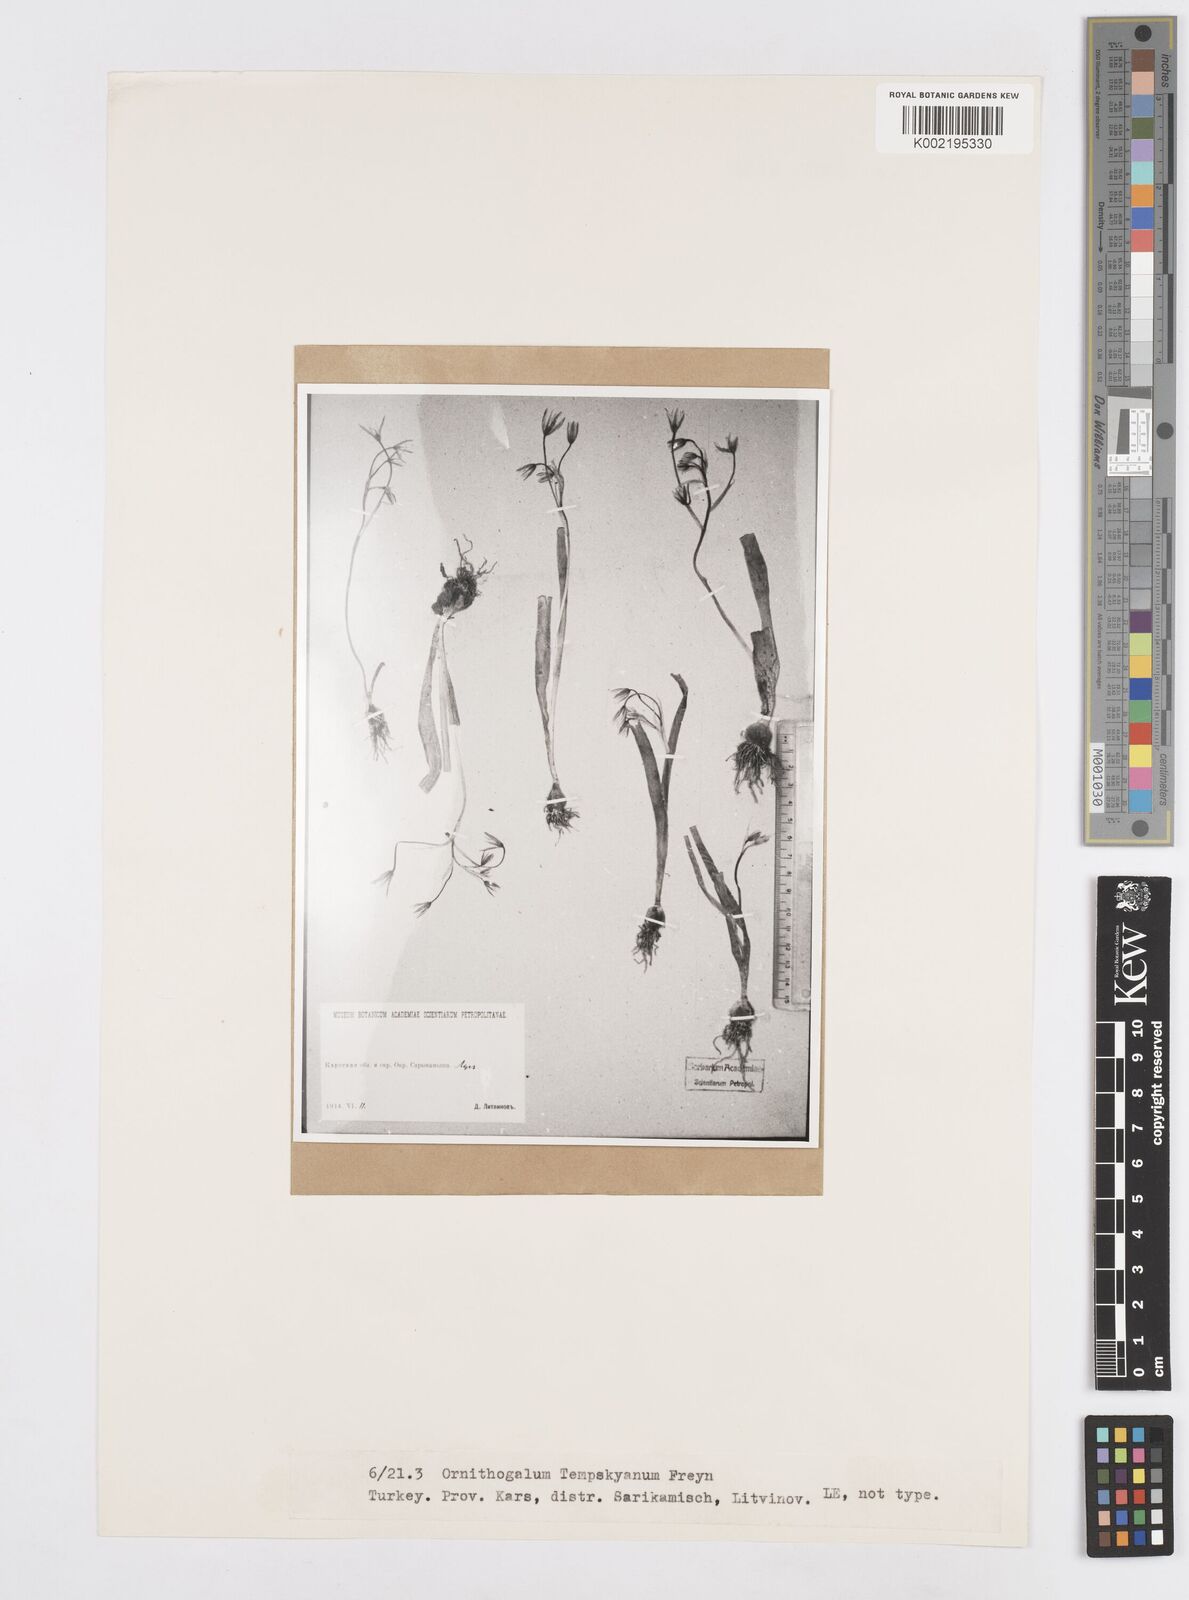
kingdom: Plantae
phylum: Tracheophyta
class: Liliopsida
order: Asparagales
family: Asparagaceae
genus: Ornithogalum
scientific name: Ornithogalum graciliflorum
